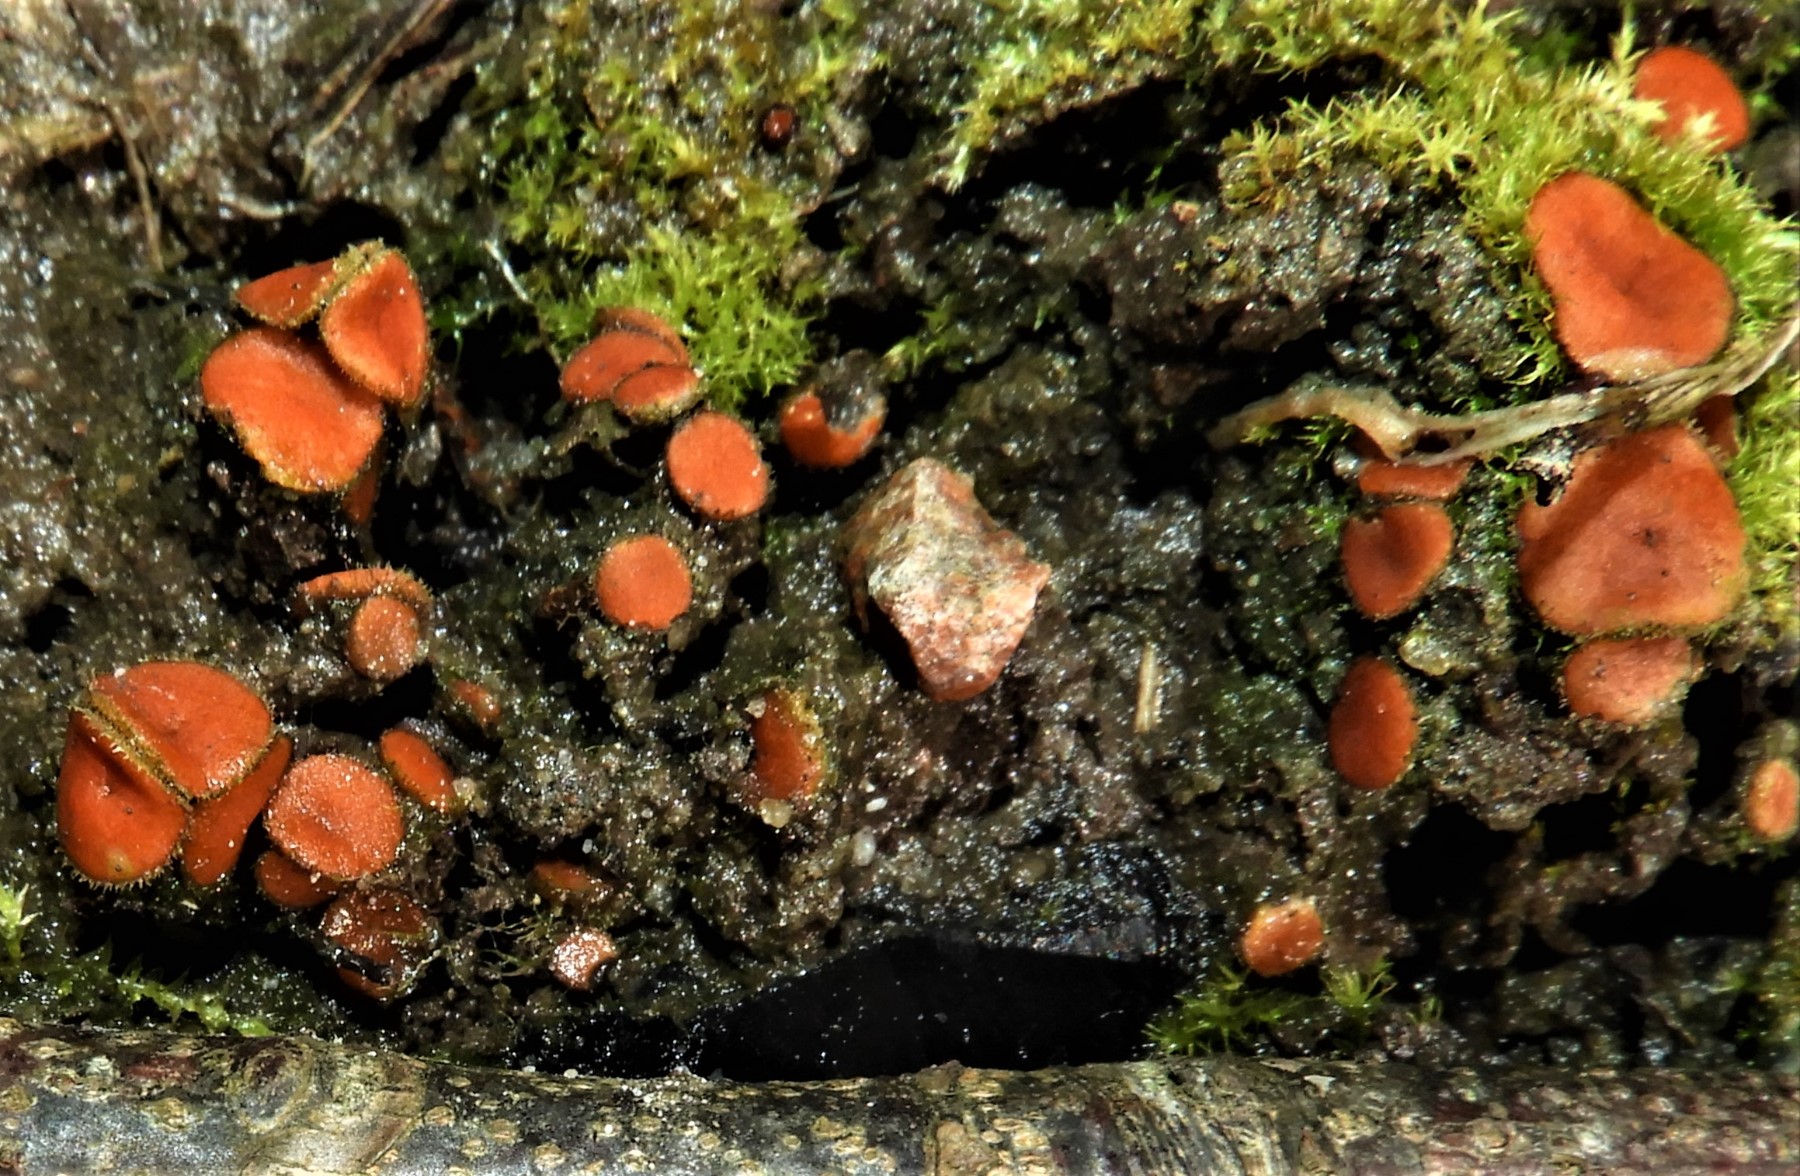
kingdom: Fungi
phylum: Ascomycota
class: Pezizomycetes
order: Pezizales
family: Pyronemataceae
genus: Scutellinia
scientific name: Scutellinia
